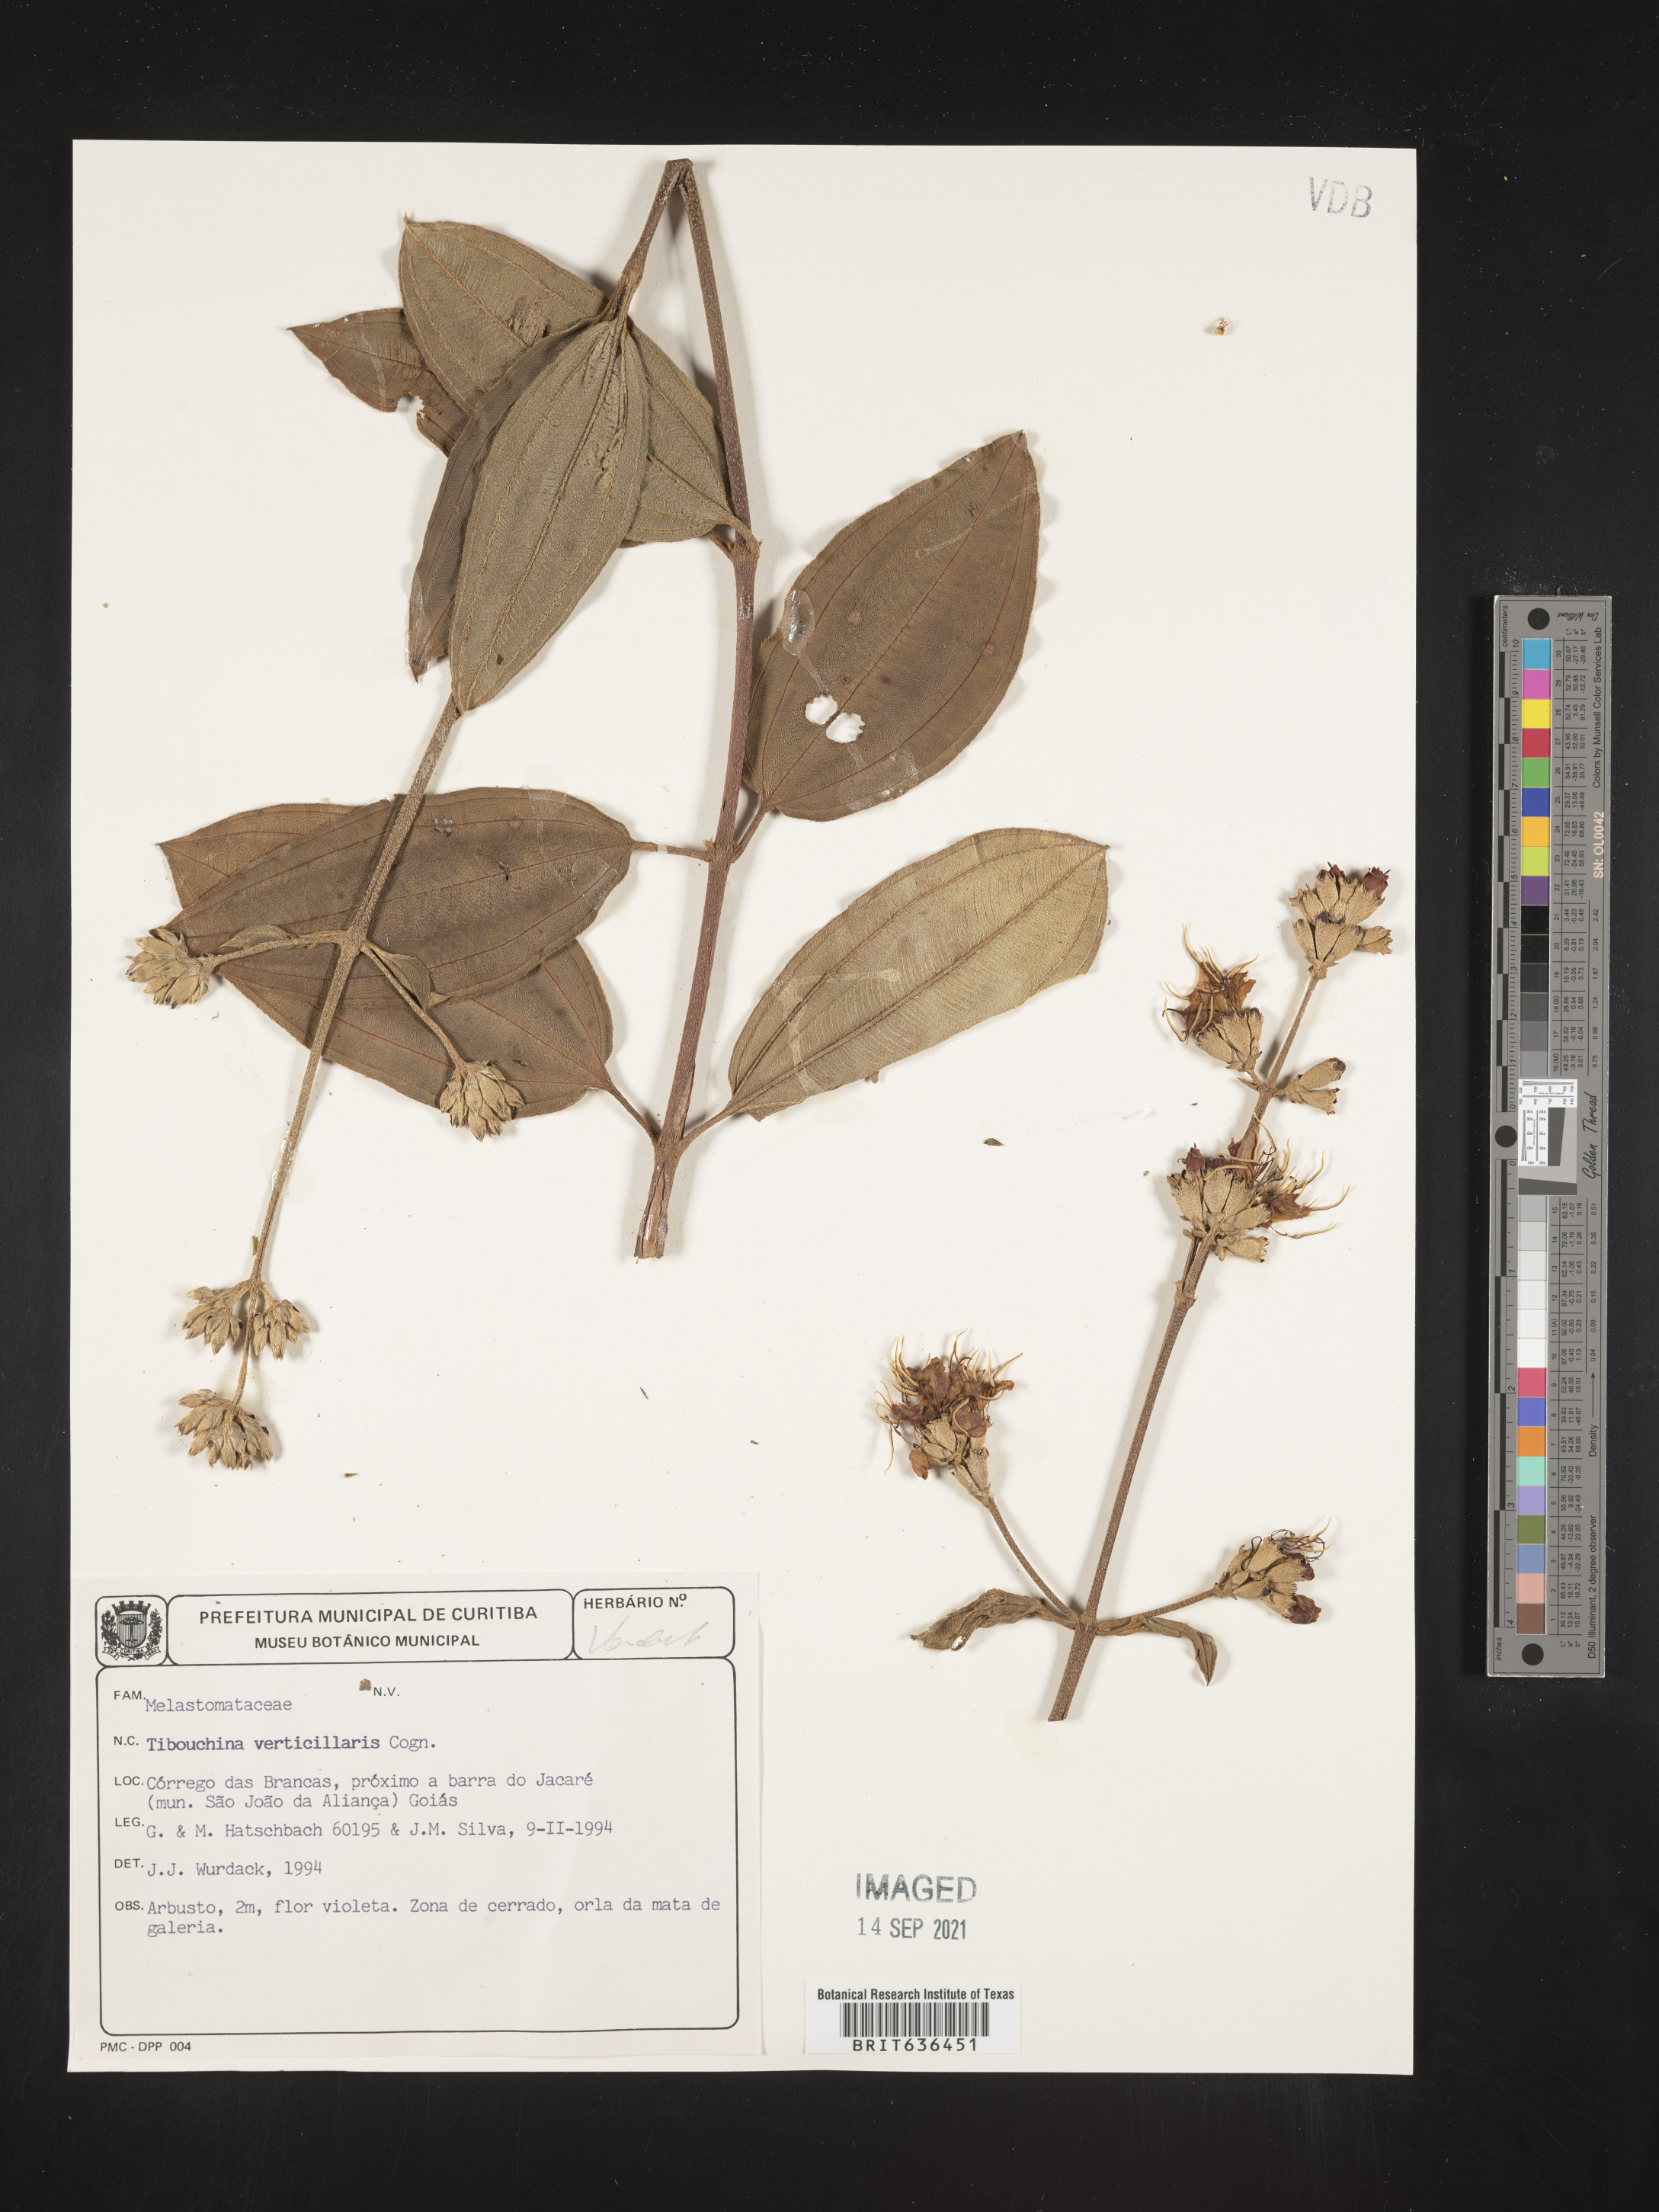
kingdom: Plantae
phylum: Tracheophyta
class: Magnoliopsida
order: Myrtales
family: Melastomataceae
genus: Tibouchina
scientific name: Tibouchina
